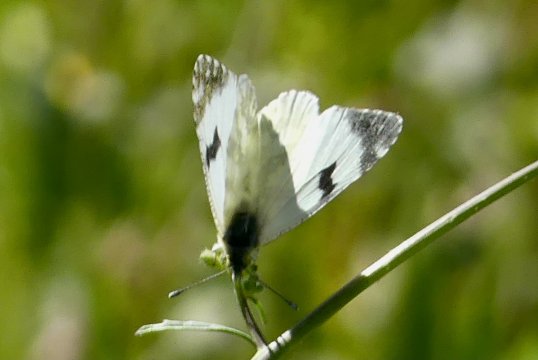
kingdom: Animalia
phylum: Arthropoda
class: Insecta
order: Lepidoptera
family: Pieridae
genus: Euchloe
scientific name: Euchloe belemia
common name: Green-striped White
